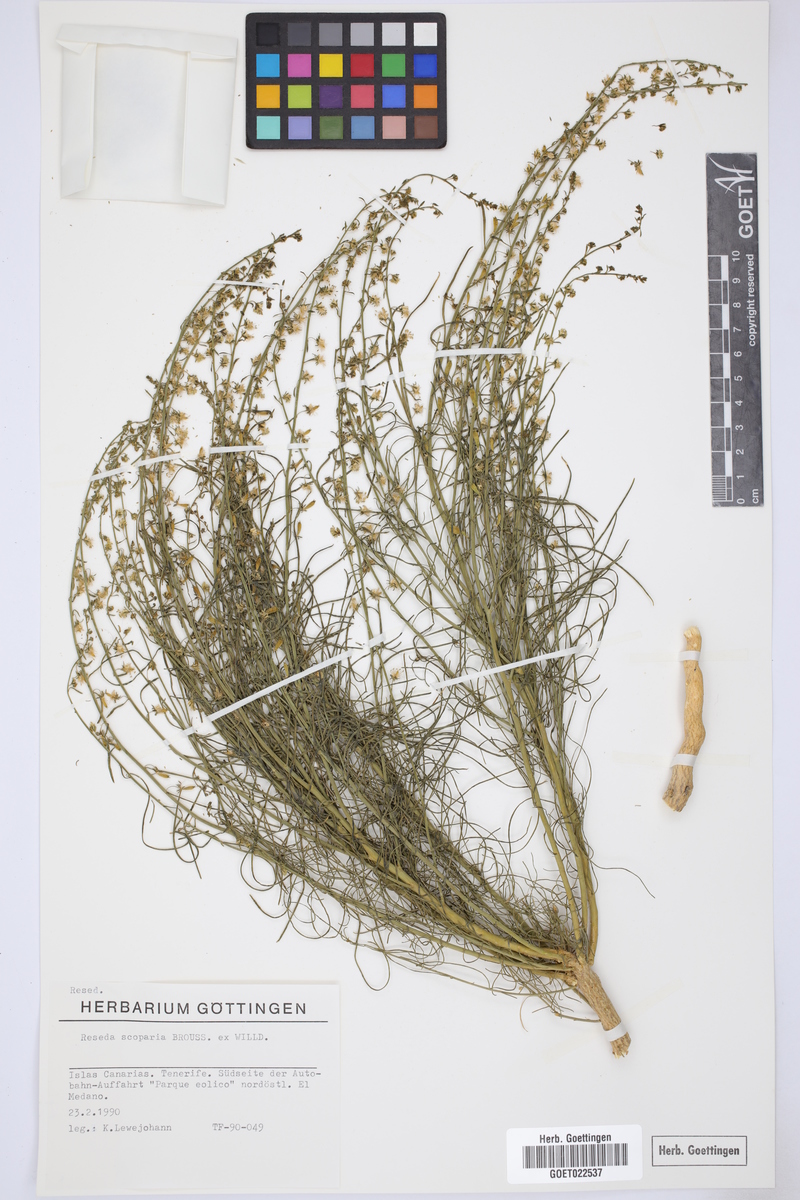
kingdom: Plantae
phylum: Tracheophyta
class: Magnoliopsida
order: Brassicales
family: Resedaceae
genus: Reseda
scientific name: Reseda scoparia
